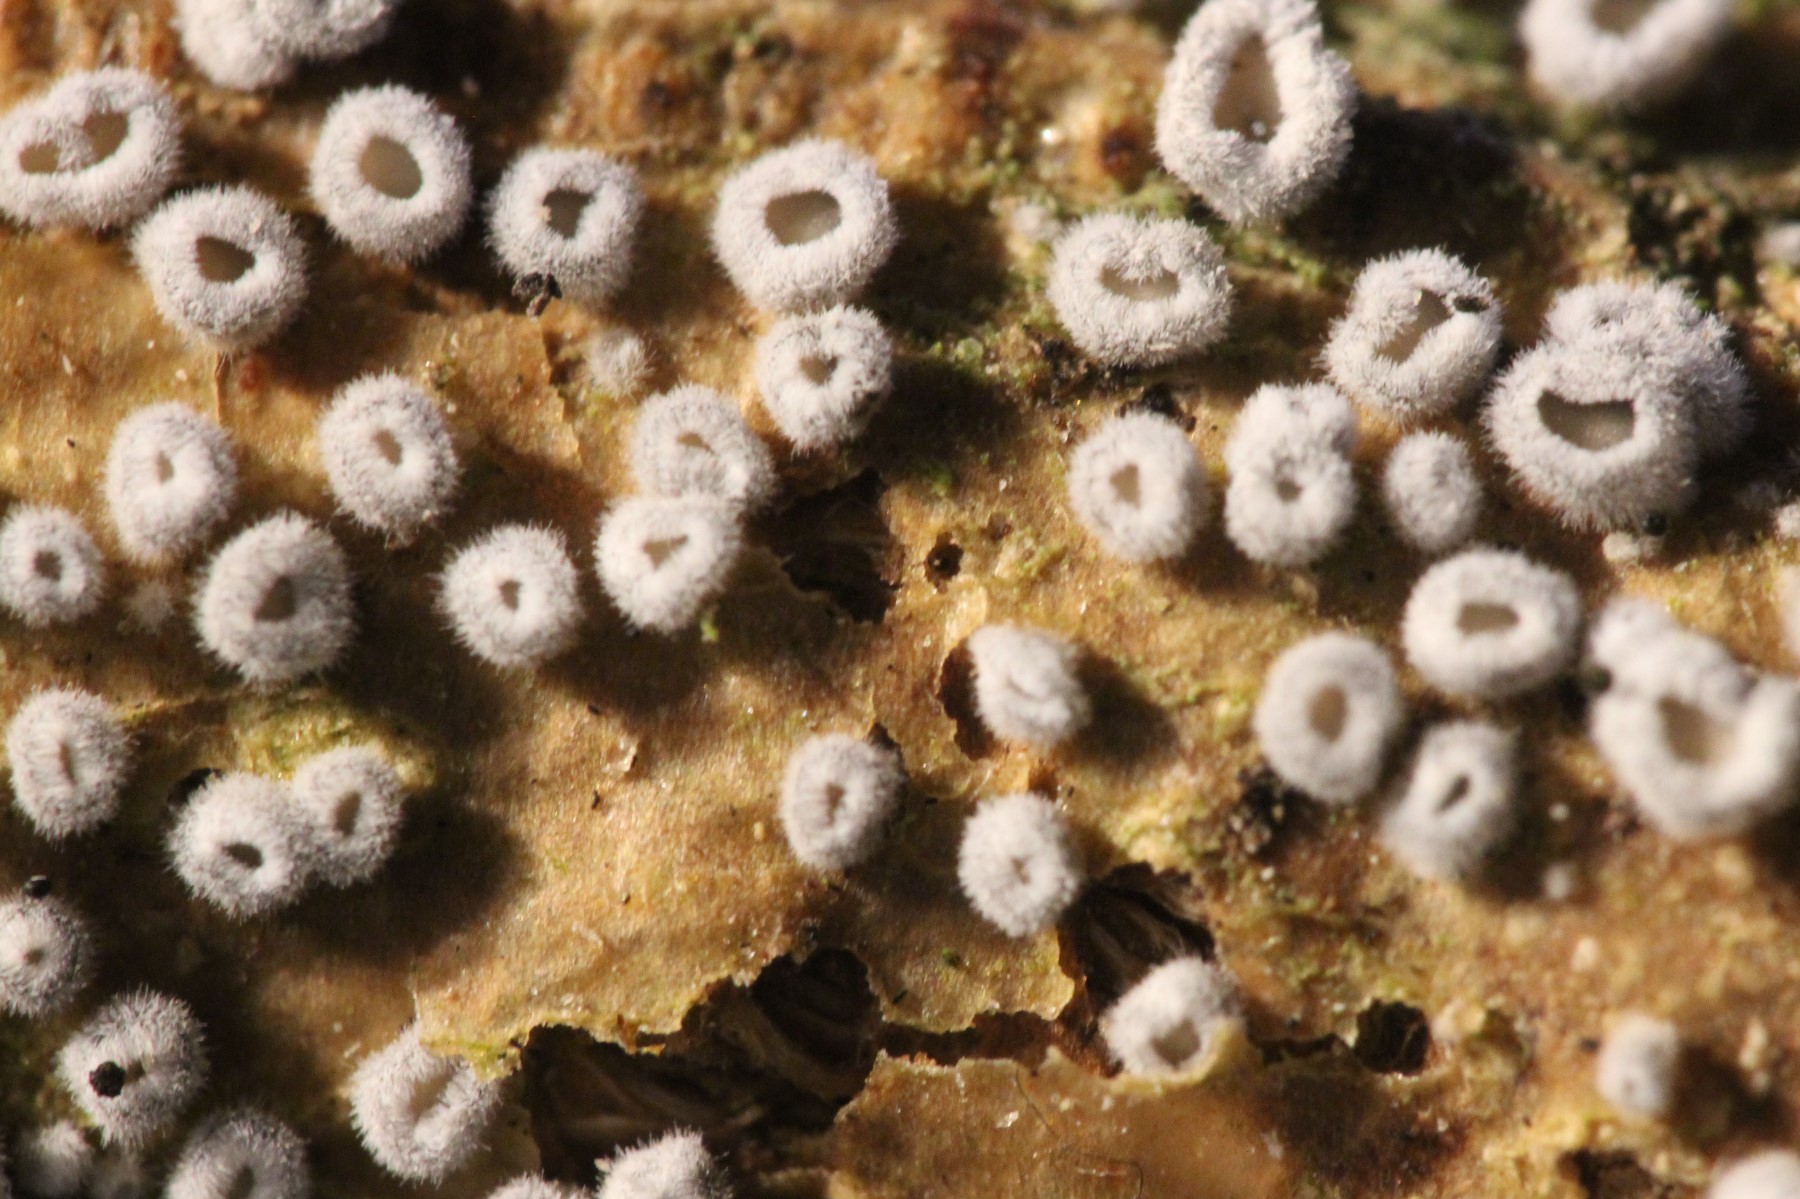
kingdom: Fungi
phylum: Basidiomycota
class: Agaricomycetes
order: Agaricales
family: Niaceae
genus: Lachnella
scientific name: Lachnella alboviolascens
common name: grå frynserede
